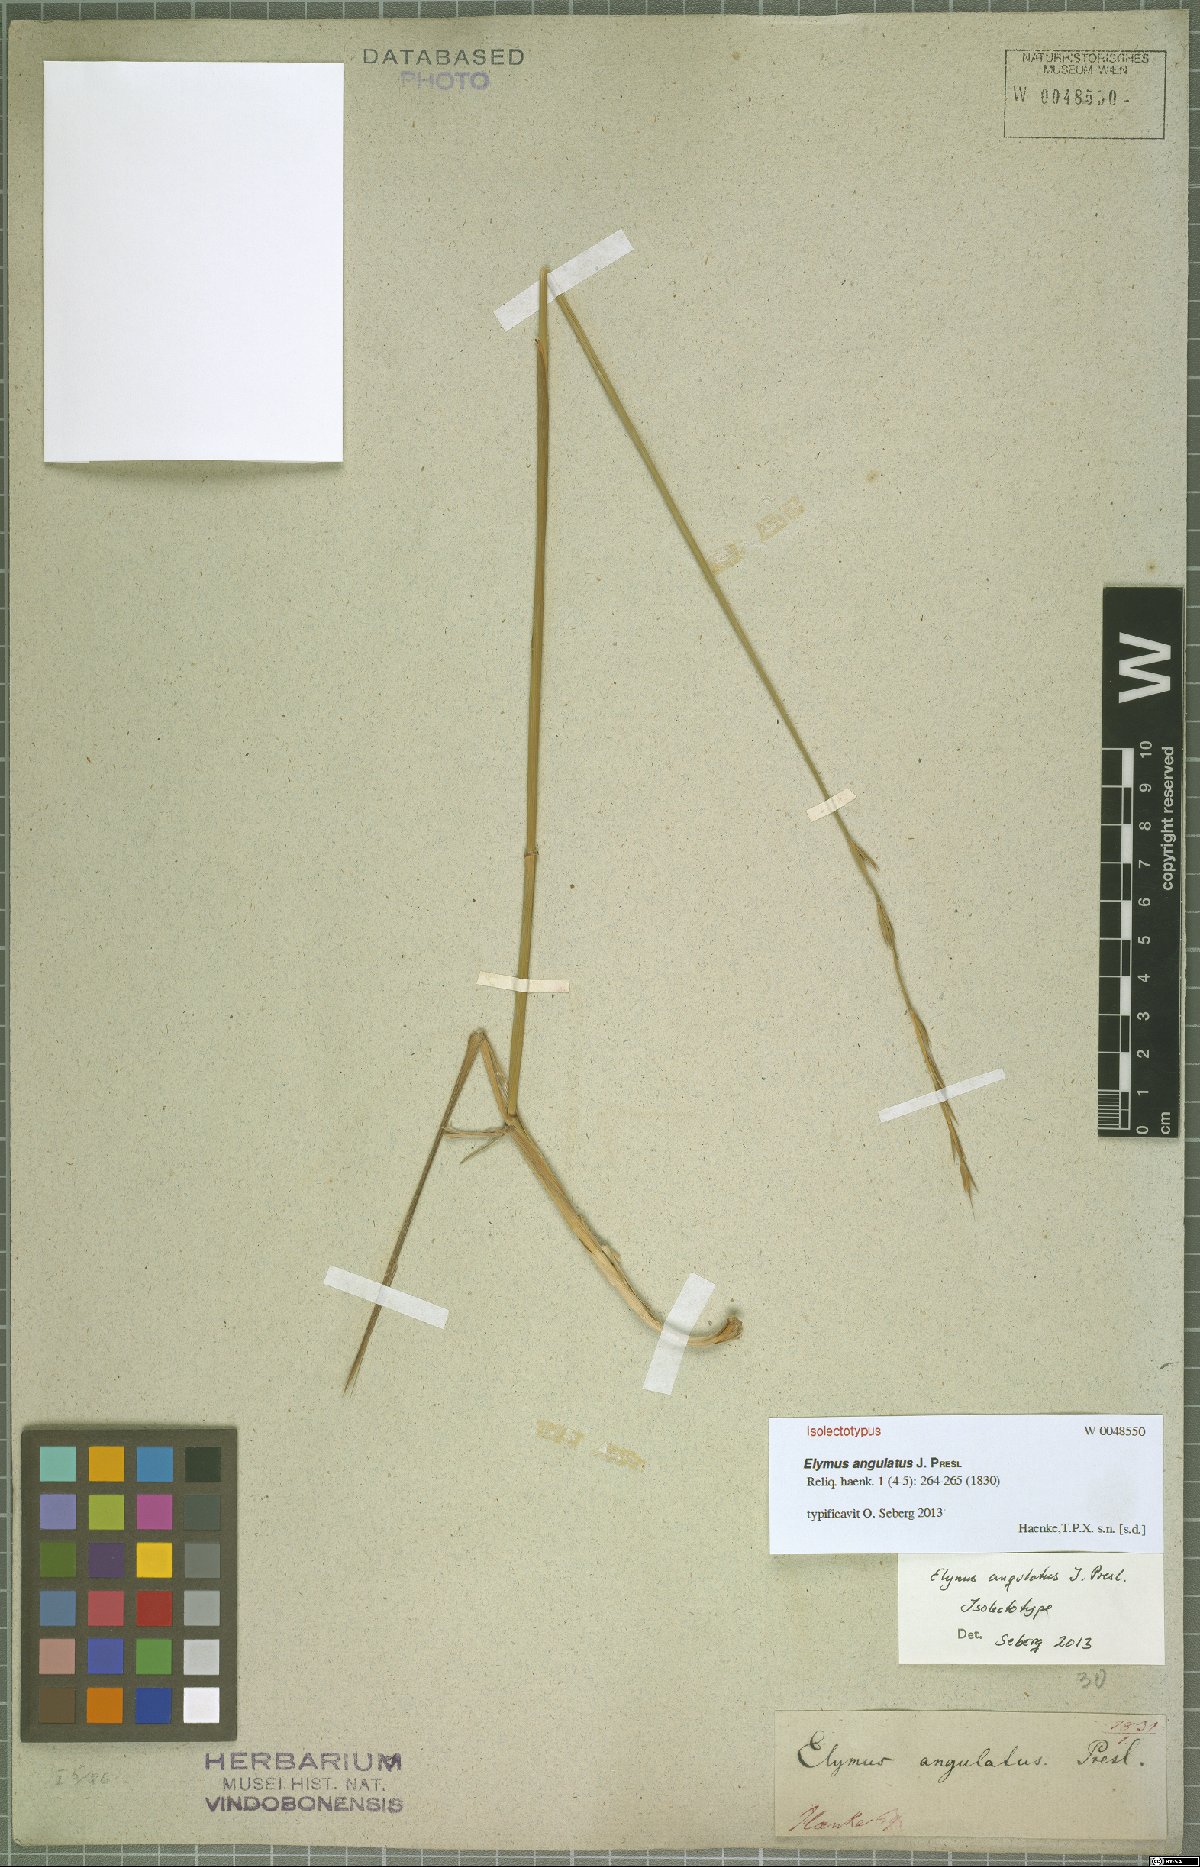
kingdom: Plantae
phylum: Tracheophyta
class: Liliopsida
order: Poales
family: Poaceae
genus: Elymus
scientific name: Elymus angulatus
